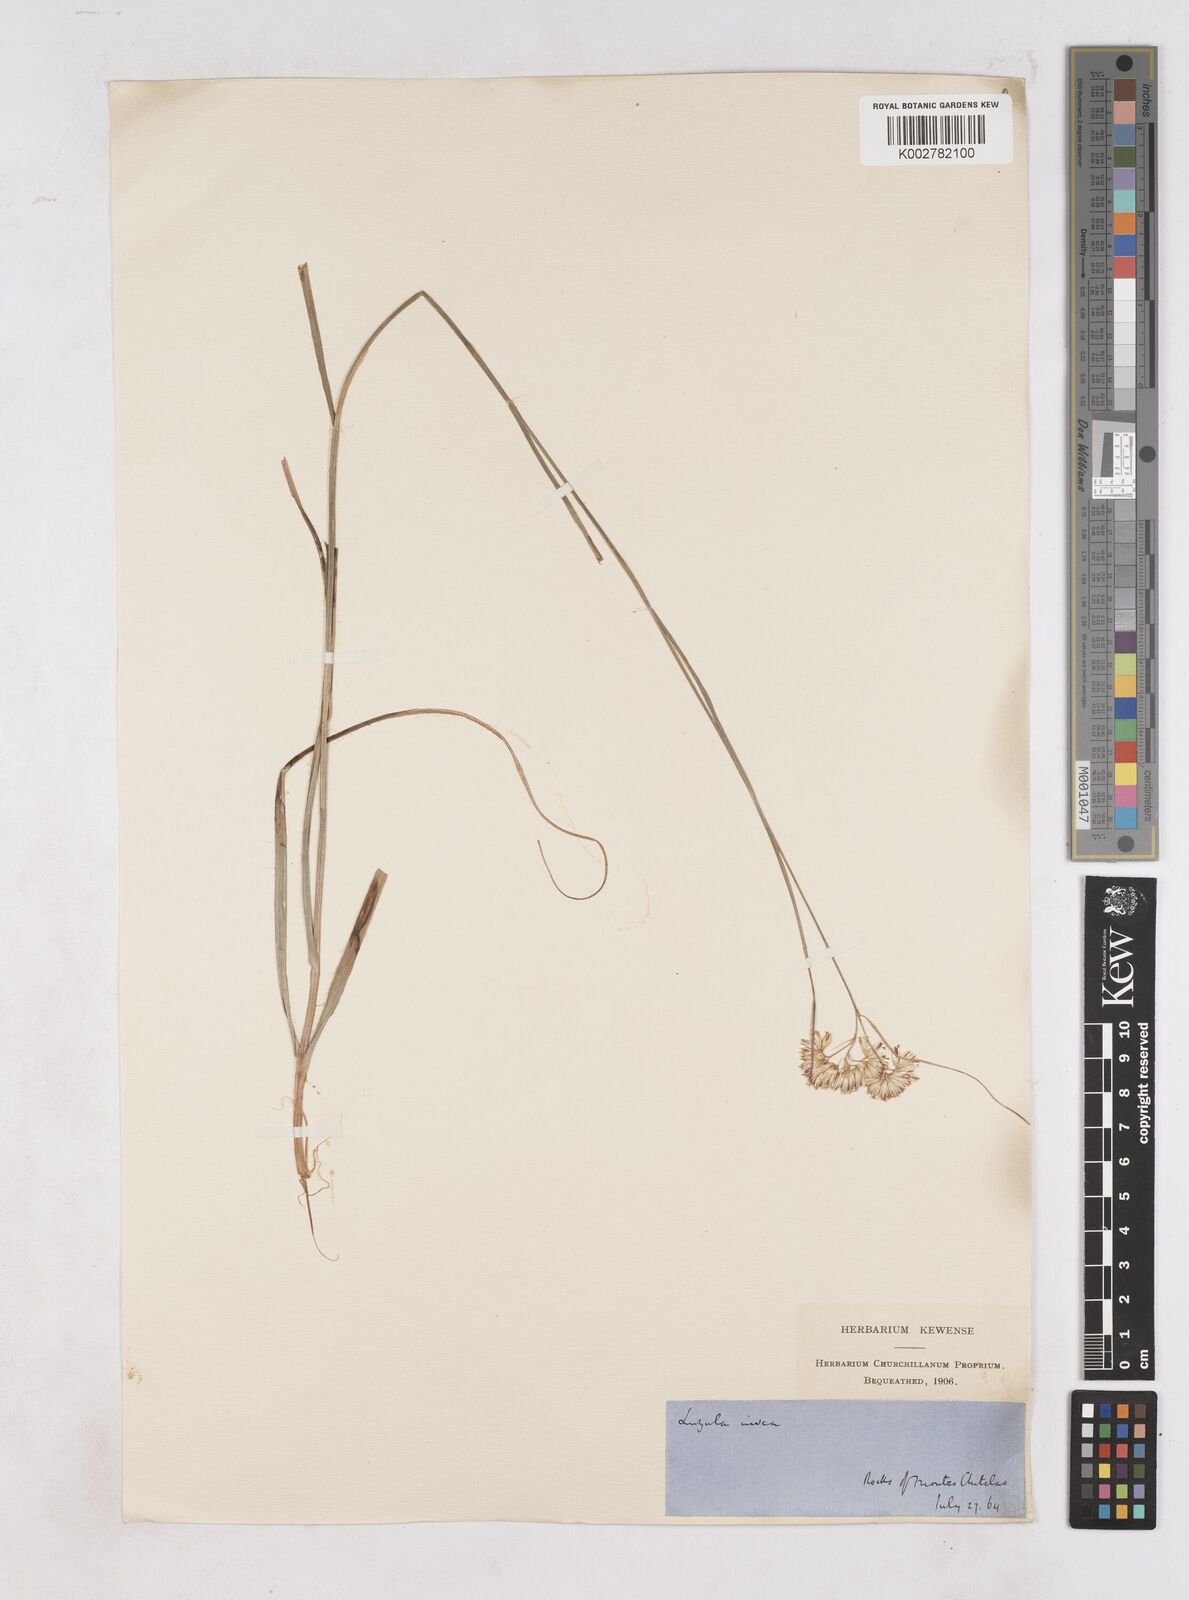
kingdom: Plantae
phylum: Tracheophyta
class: Liliopsida
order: Poales
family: Juncaceae
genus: Luzula
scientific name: Luzula nivea
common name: Snow-white wood-rush
